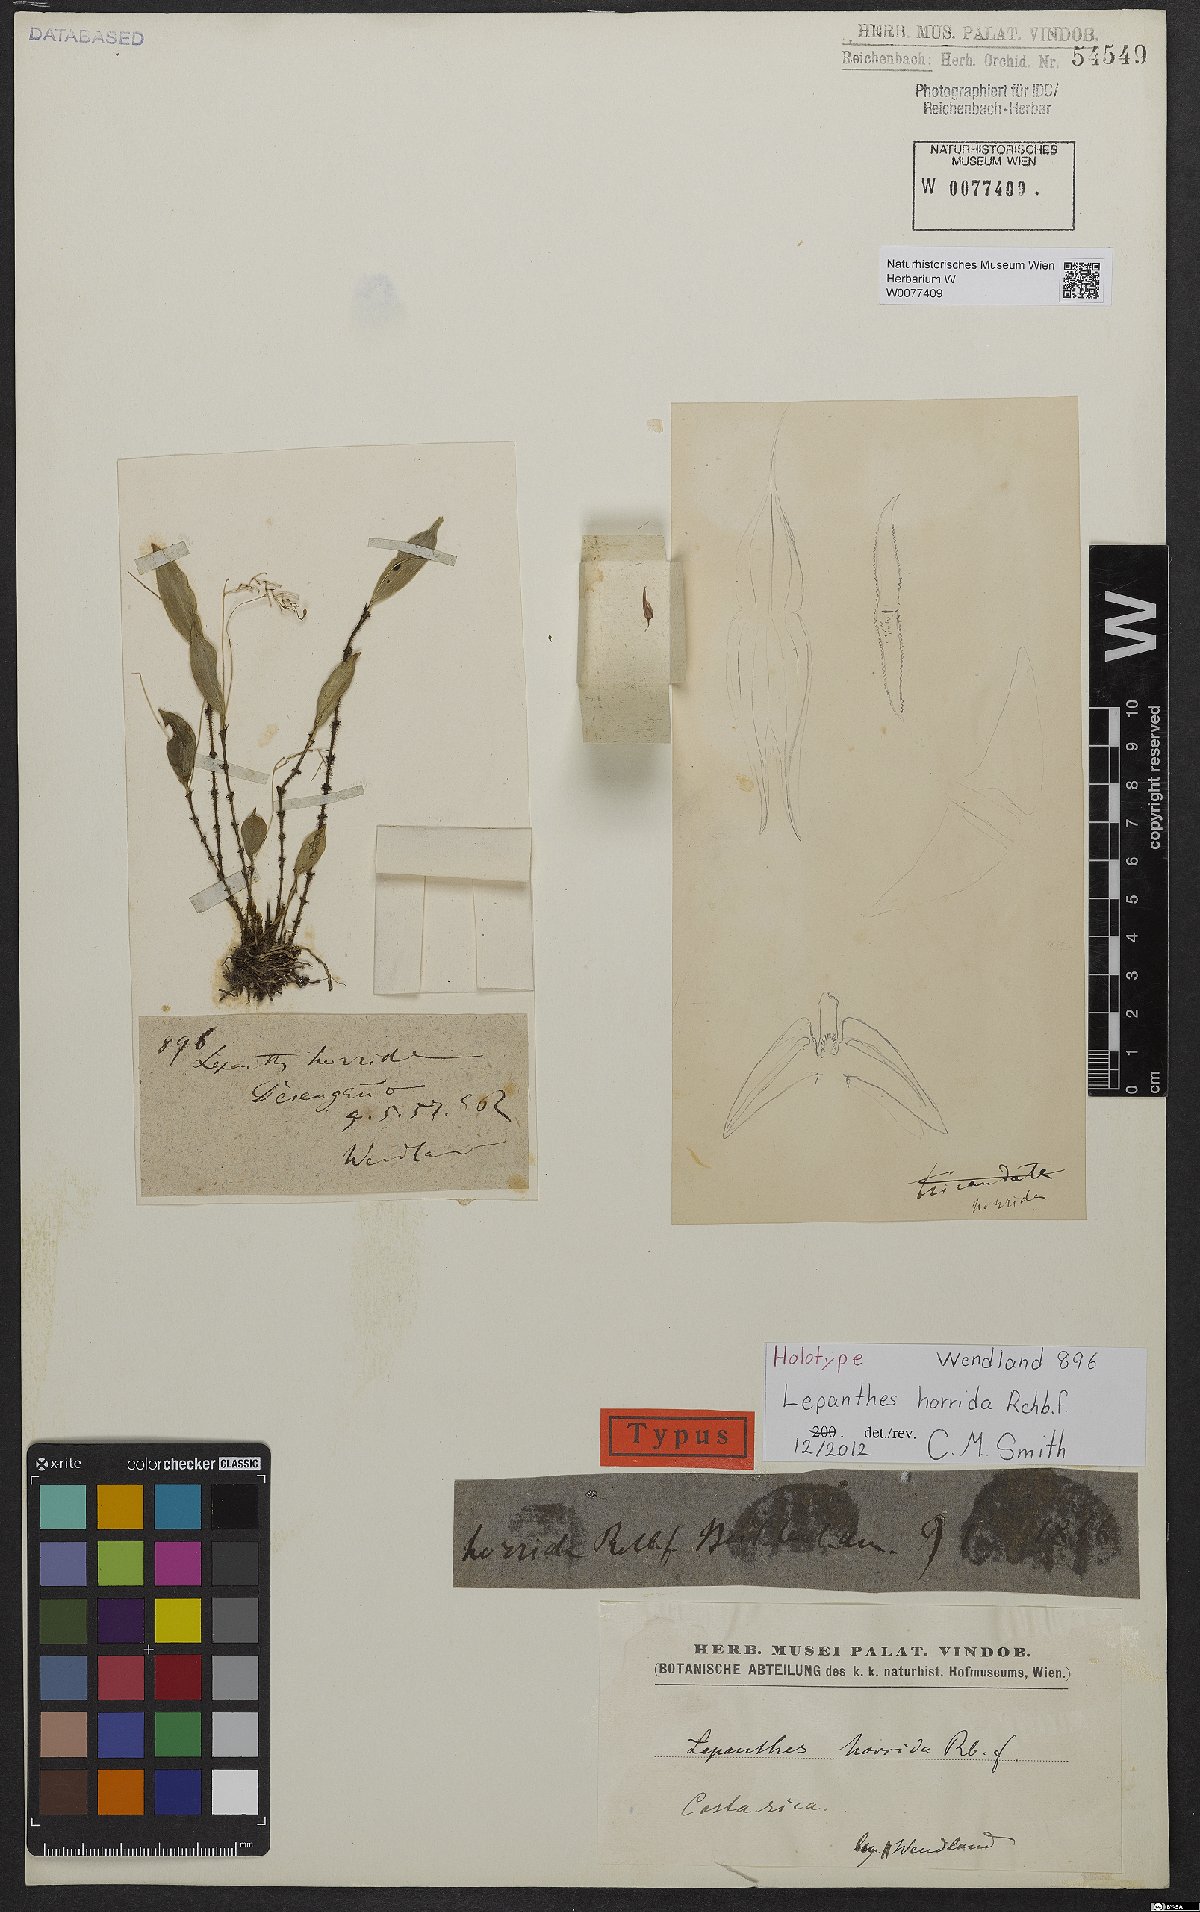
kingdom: Plantae
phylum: Tracheophyta
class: Liliopsida
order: Asparagales
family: Orchidaceae
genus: Lepanthes
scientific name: Lepanthes horrida
